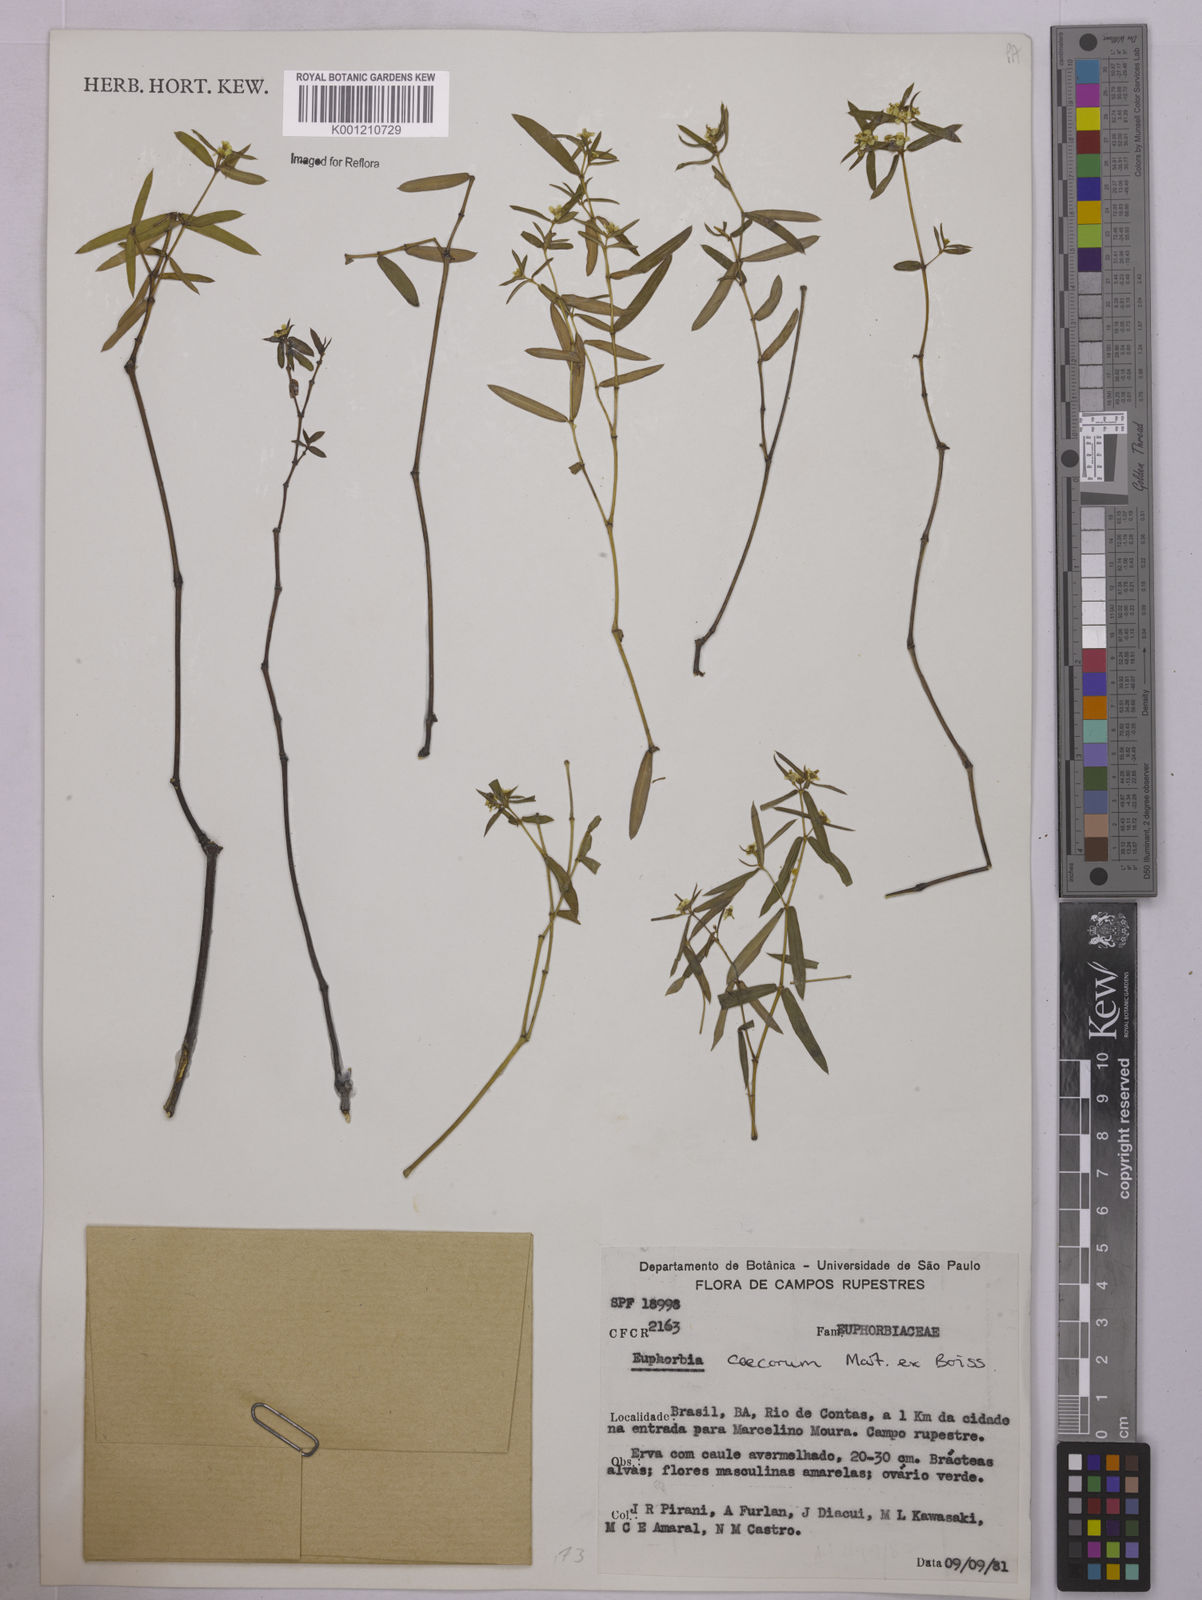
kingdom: Plantae
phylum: Tracheophyta
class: Magnoliopsida
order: Malpighiales
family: Euphorbiaceae
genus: Euphorbia
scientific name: Euphorbia potentilloides
